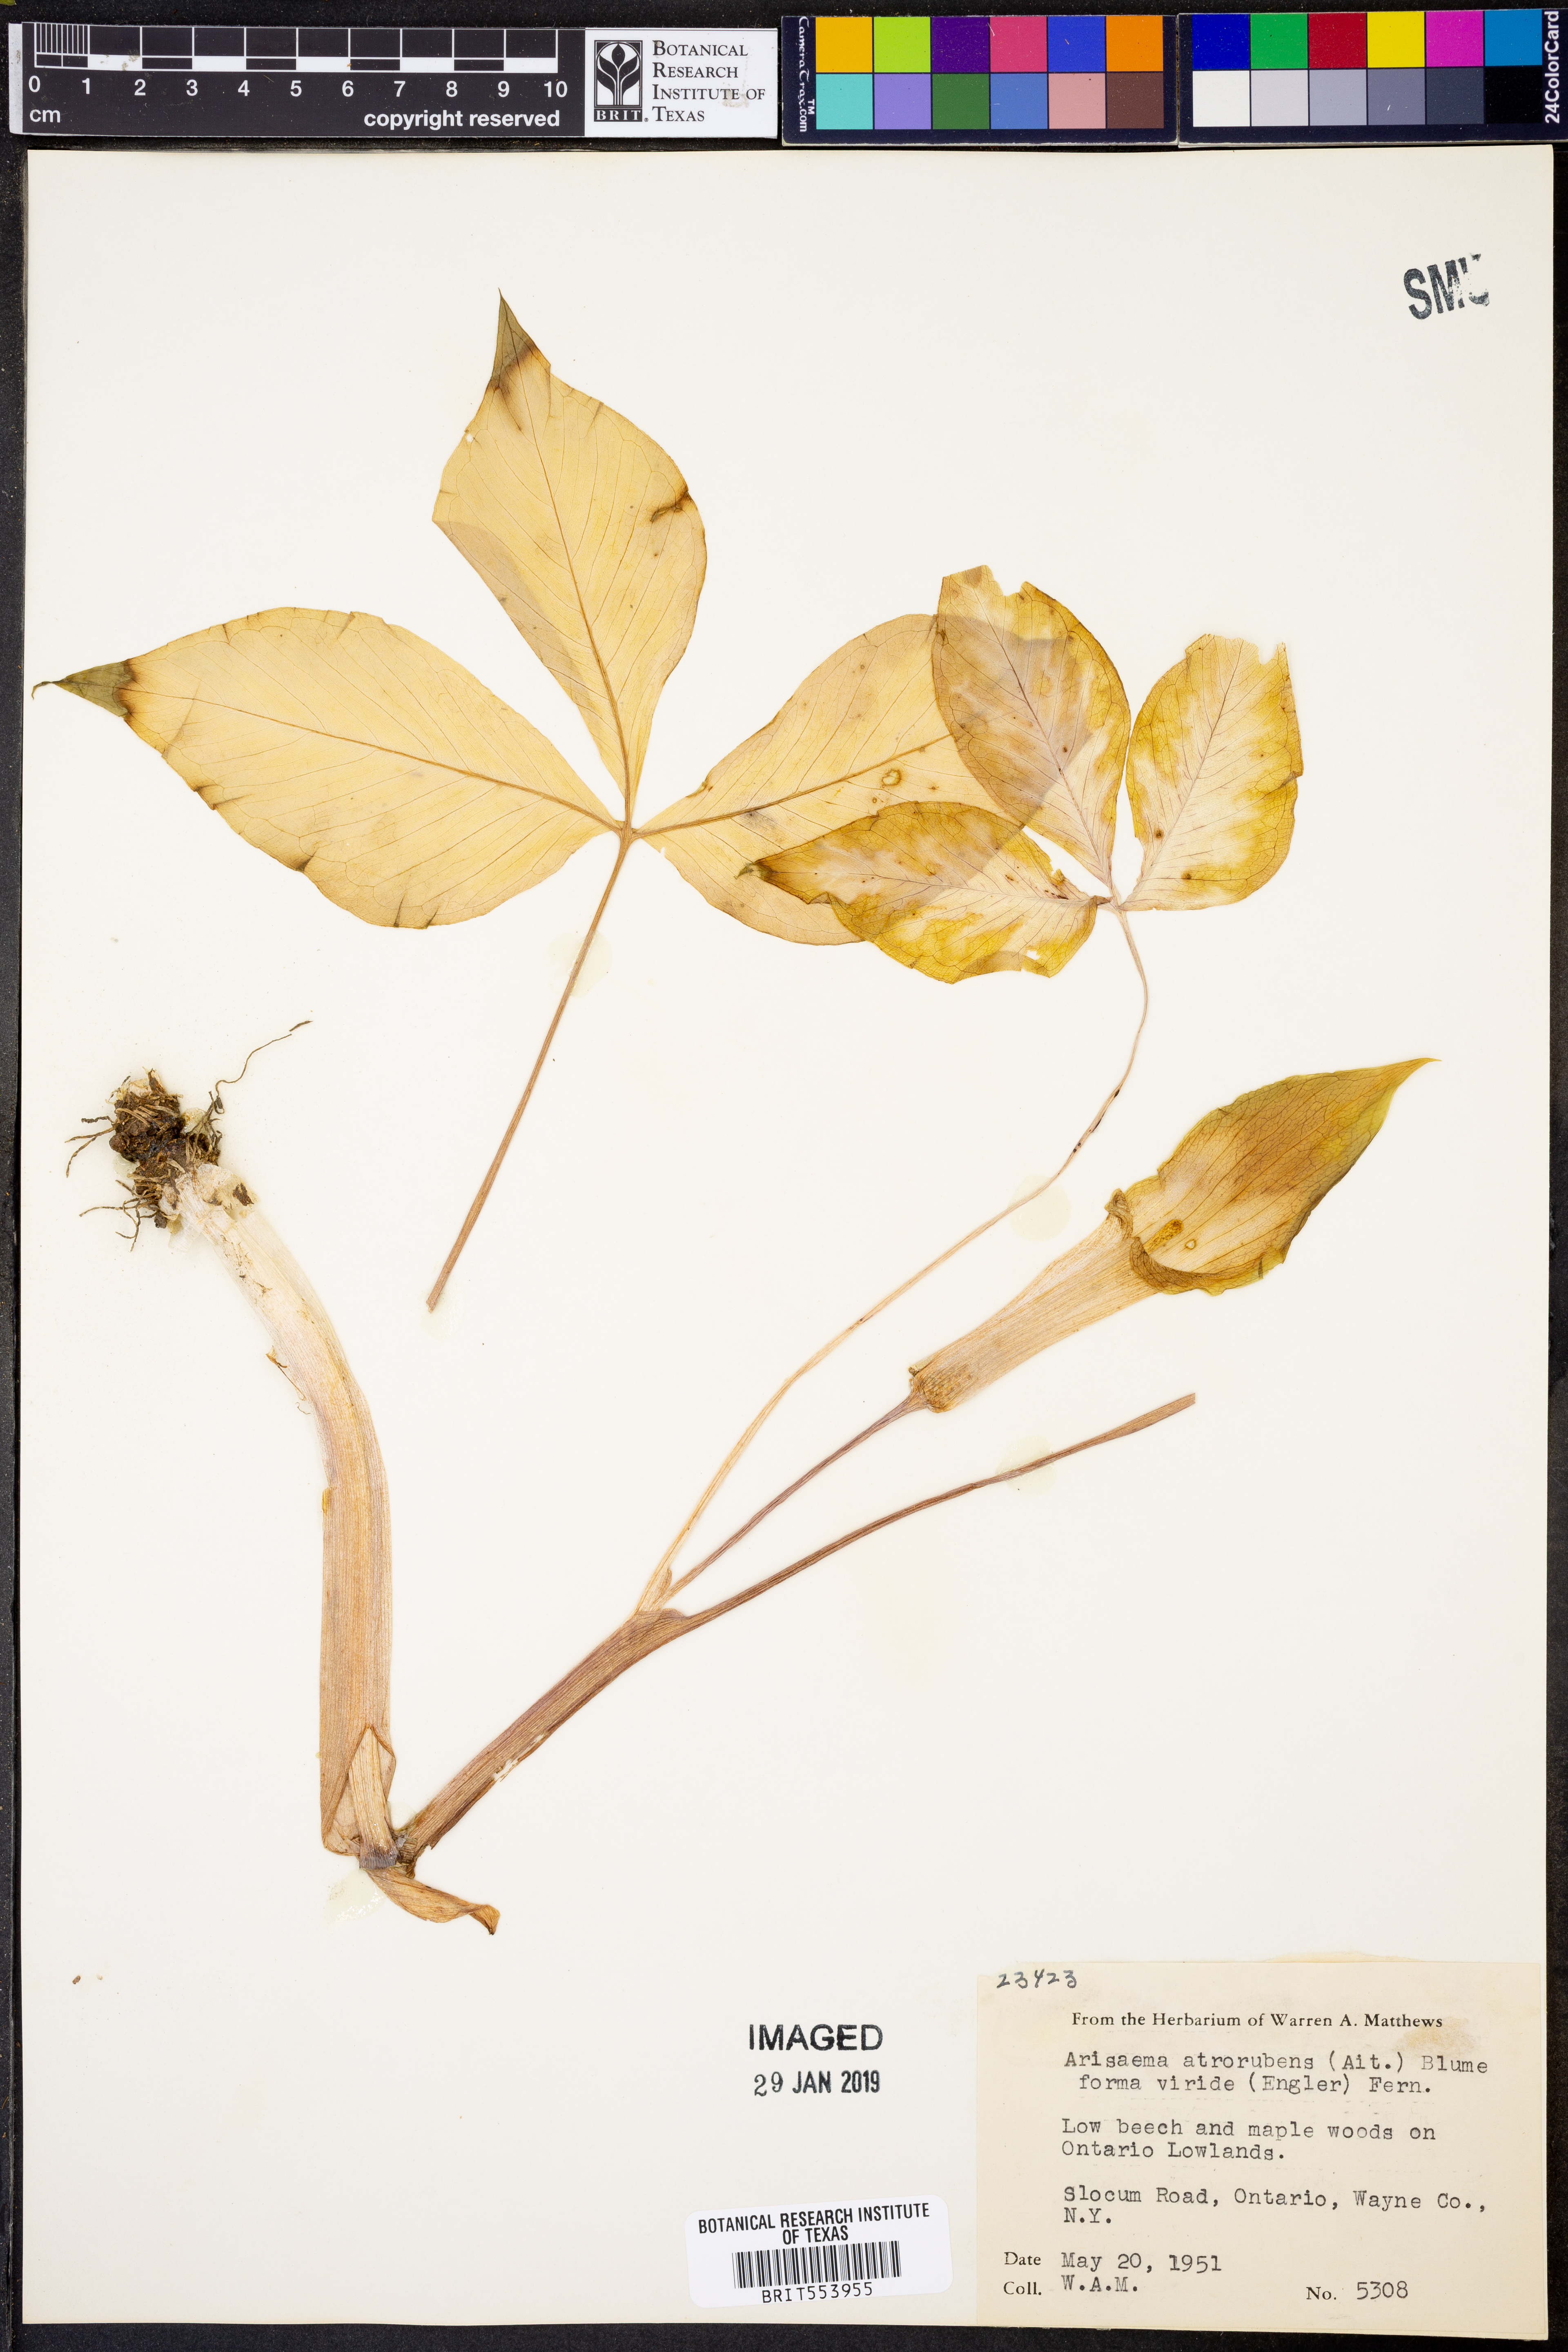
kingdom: Plantae
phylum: Tracheophyta
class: Liliopsida
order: Alismatales
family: Araceae
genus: Arisaema
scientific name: Arisaema triphyllum
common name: Jack-in-the-pulpit
